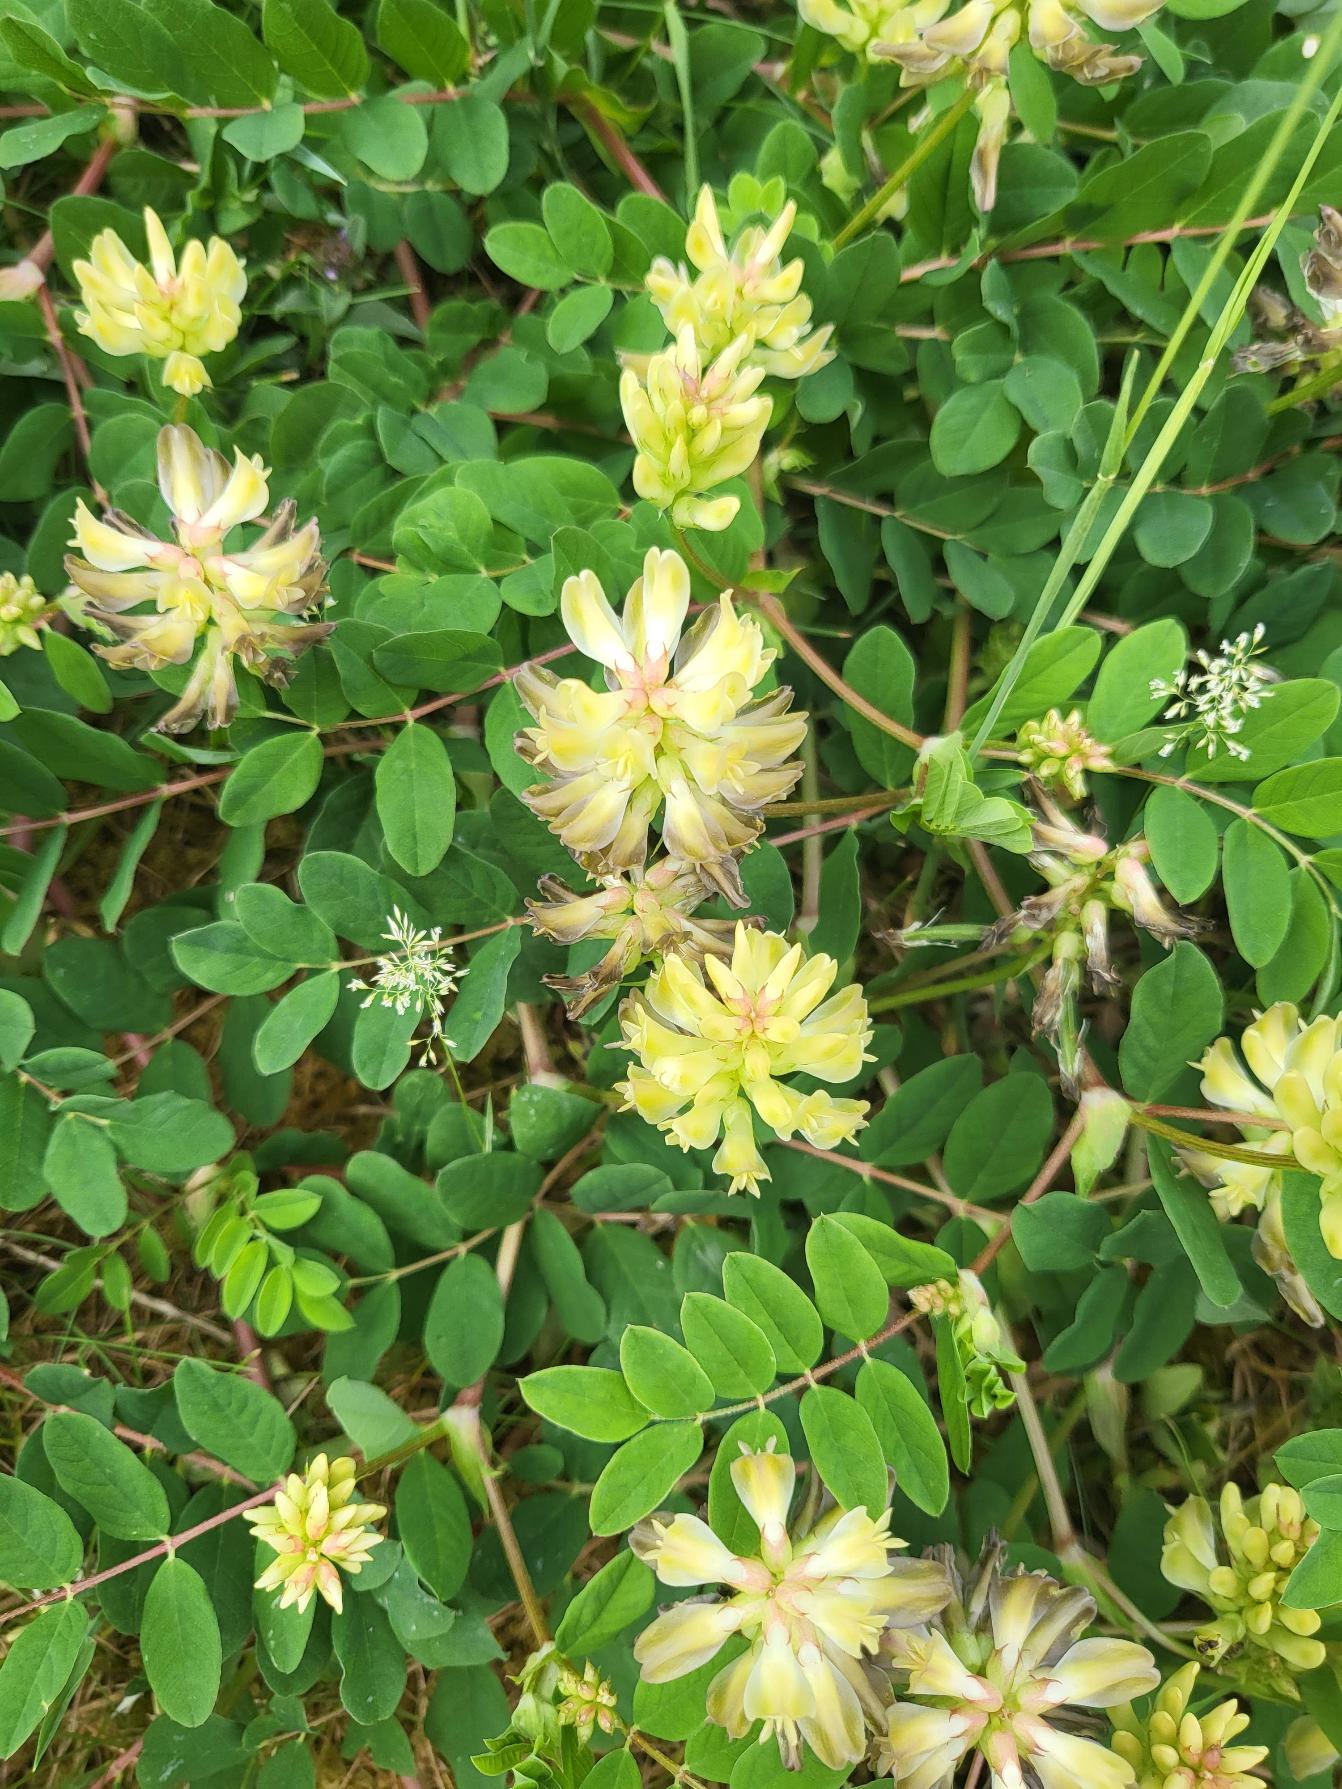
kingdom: Plantae
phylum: Tracheophyta
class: Magnoliopsida
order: Fabales
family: Fabaceae
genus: Astragalus
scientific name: Astragalus glycyphyllos
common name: Sød astragel
